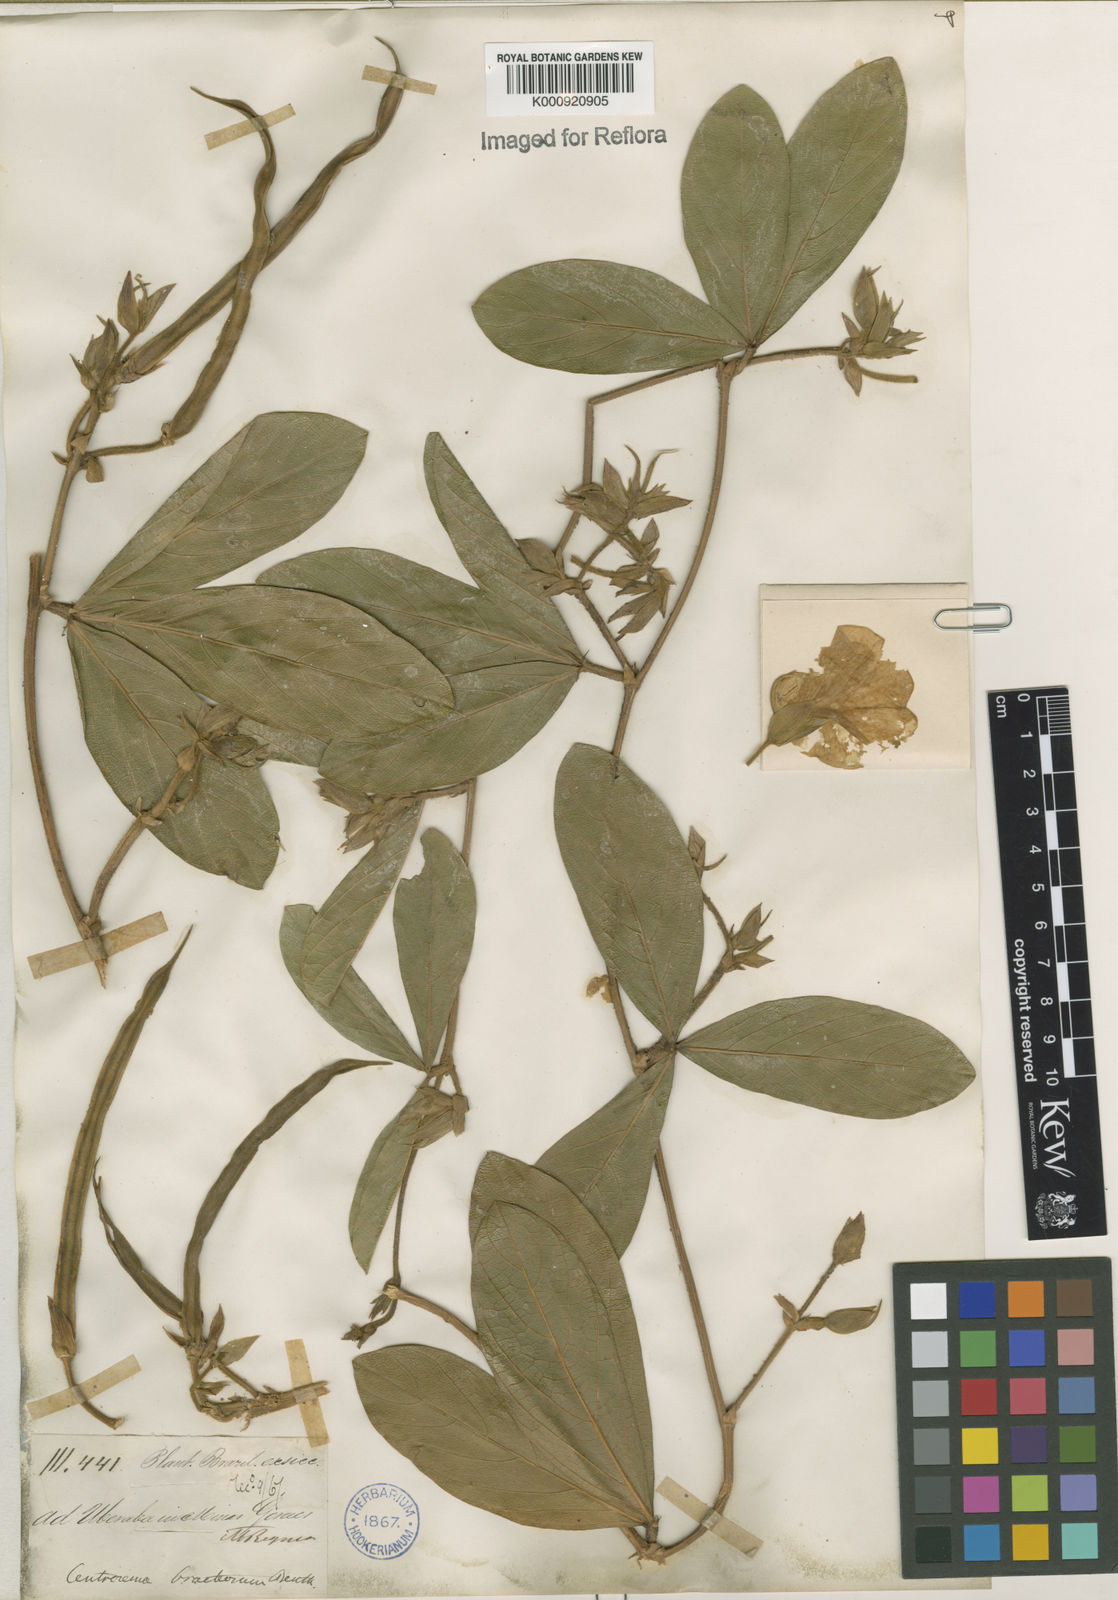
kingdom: Plantae
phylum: Tracheophyta
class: Magnoliopsida
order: Fabales
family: Fabaceae
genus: Centrosema
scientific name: Centrosema bracteosum
